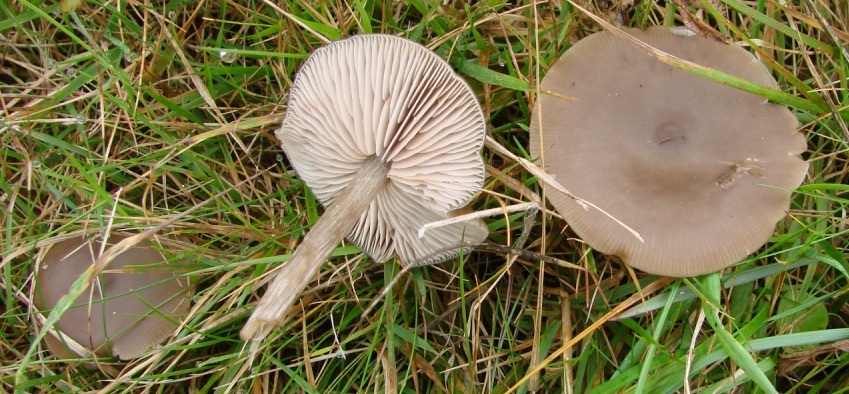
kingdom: Fungi
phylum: Basidiomycota
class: Agaricomycetes
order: Agaricales
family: Entolomataceae
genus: Entoloma
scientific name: Entoloma sericeum
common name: silkeglinsende rødblad
